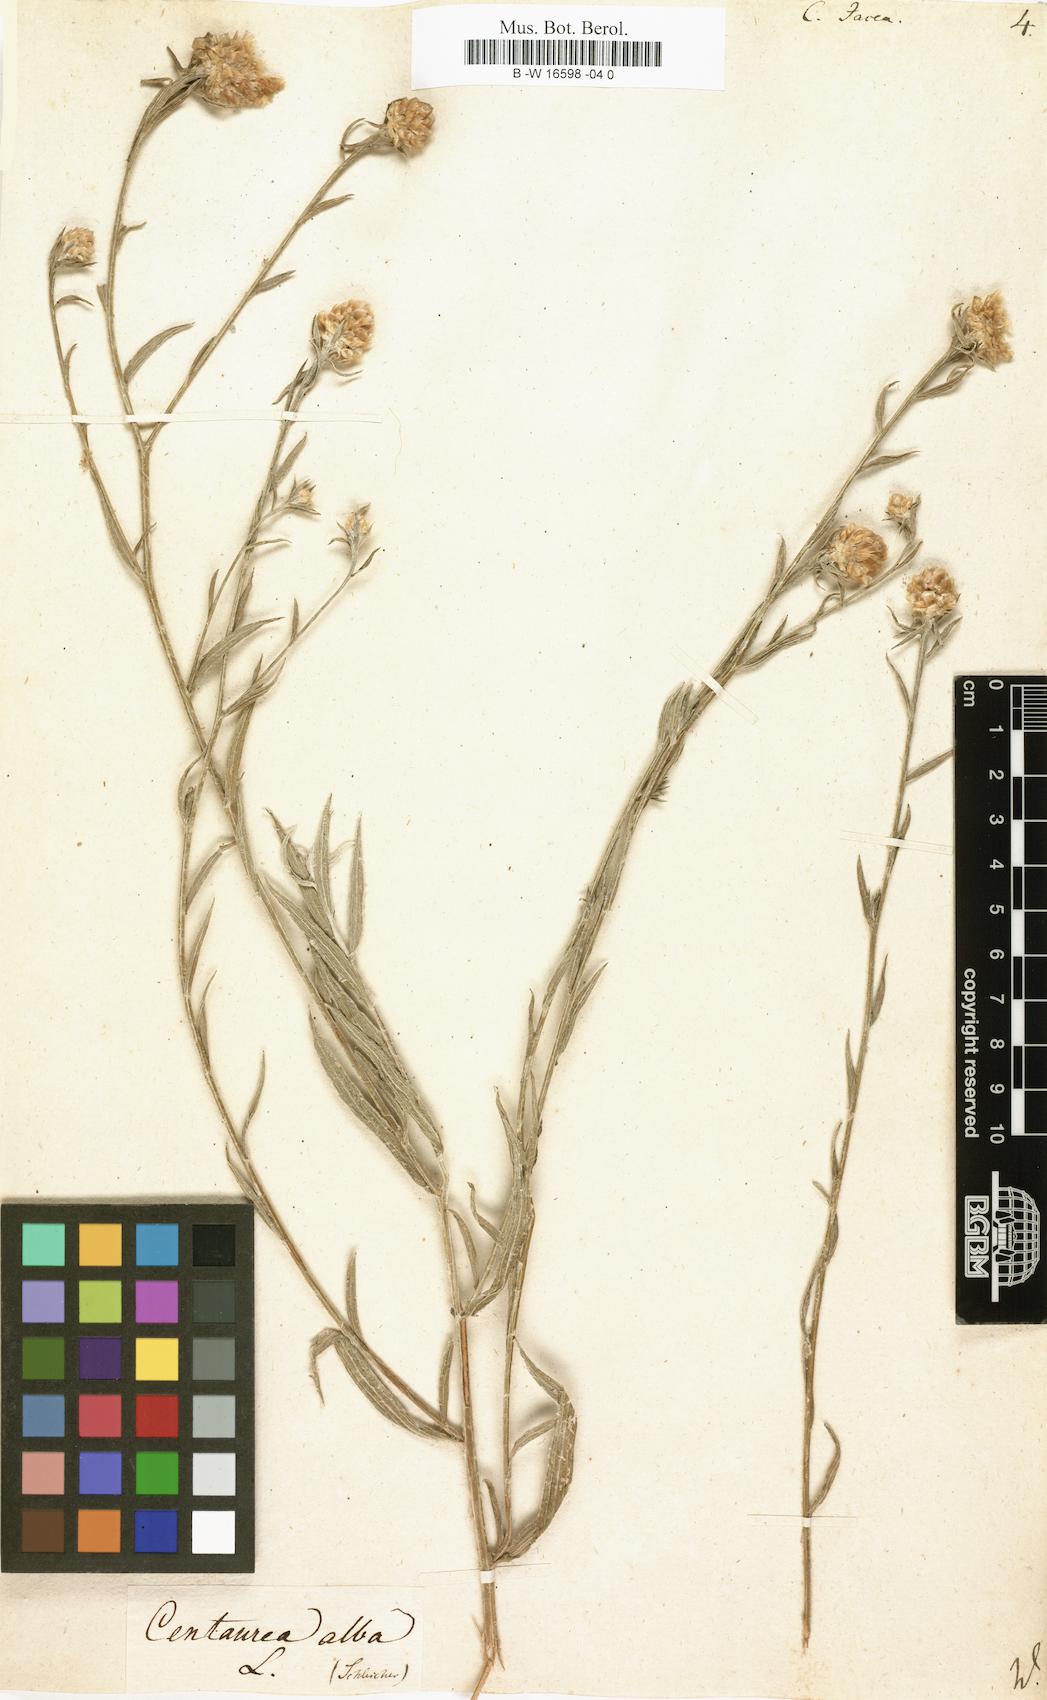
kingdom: Plantae
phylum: Tracheophyta
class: Magnoliopsida
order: Asterales
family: Asteraceae
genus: Centaurea
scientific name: Centaurea jacea
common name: Brown knapweed
